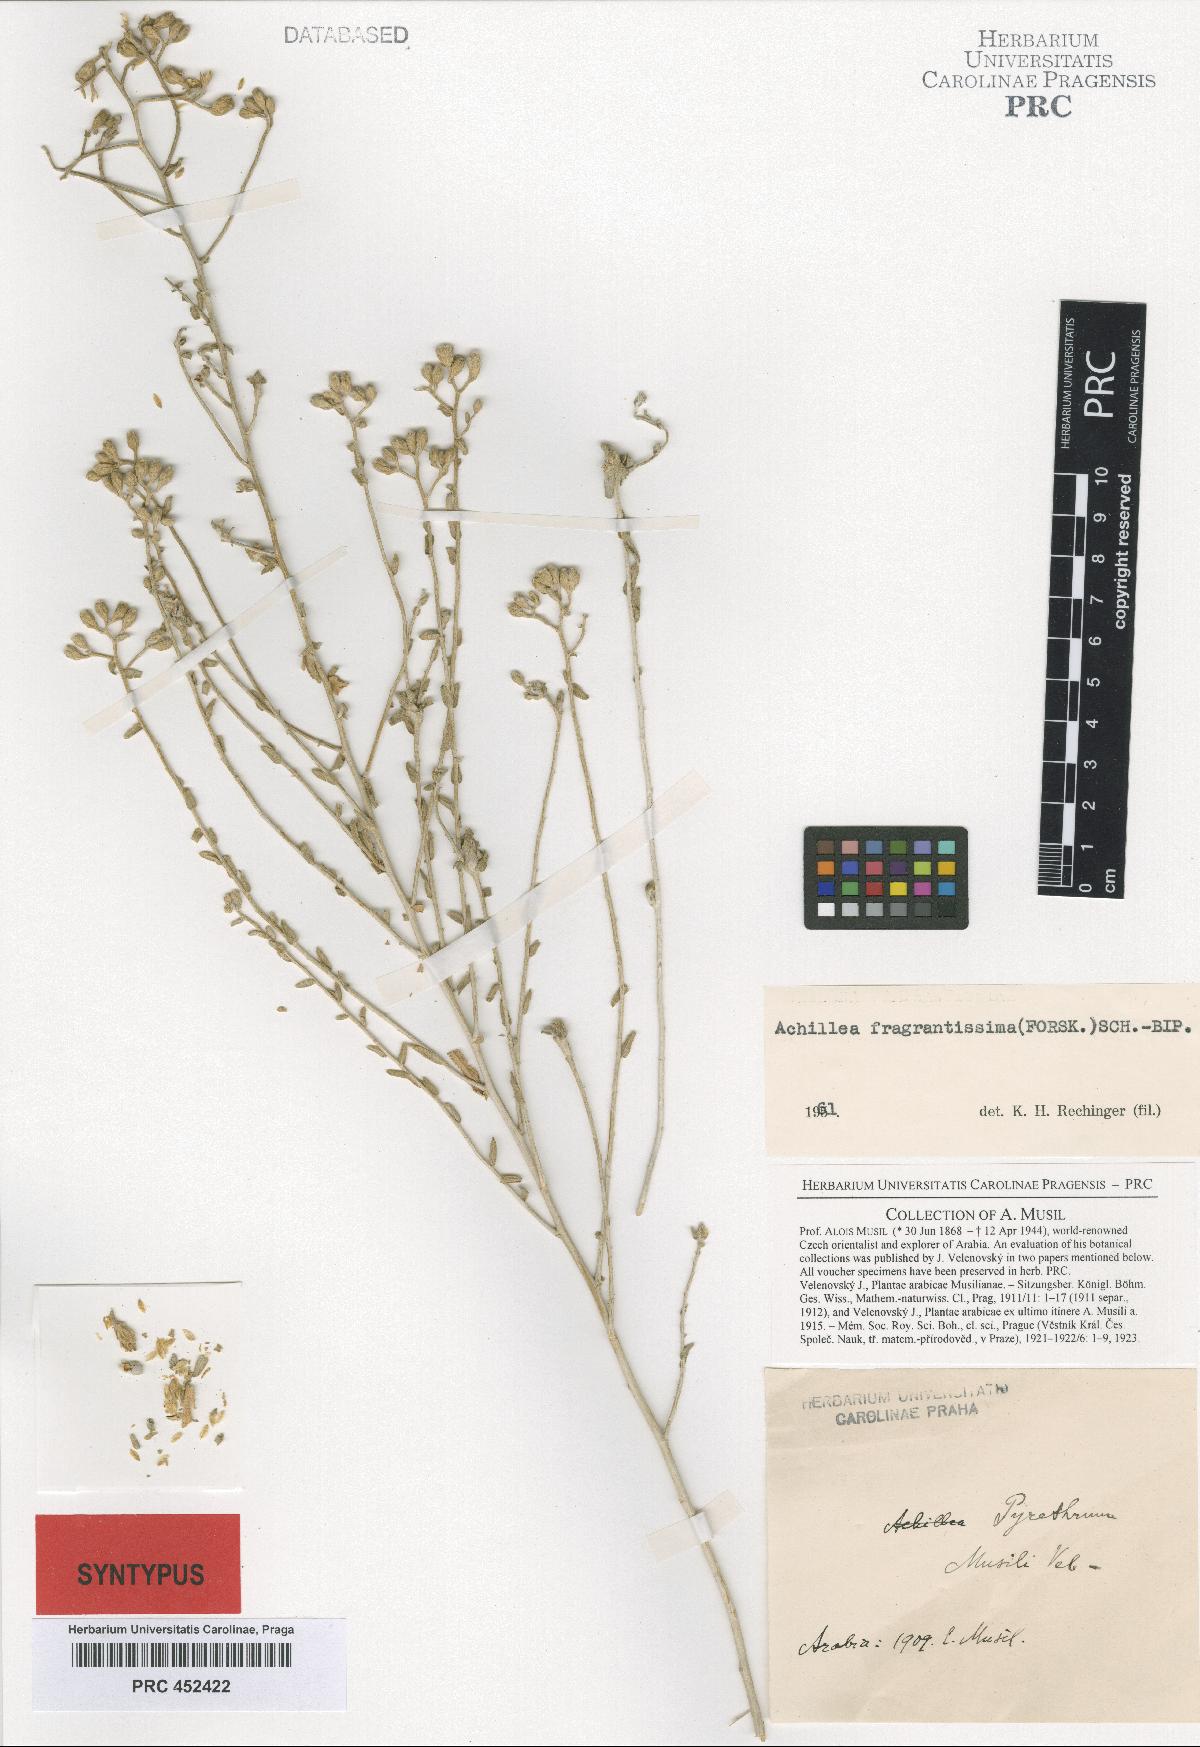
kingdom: Plantae
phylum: Tracheophyta
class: Magnoliopsida
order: Asterales
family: Asteraceae
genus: Tanacetum
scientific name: Tanacetum musili
